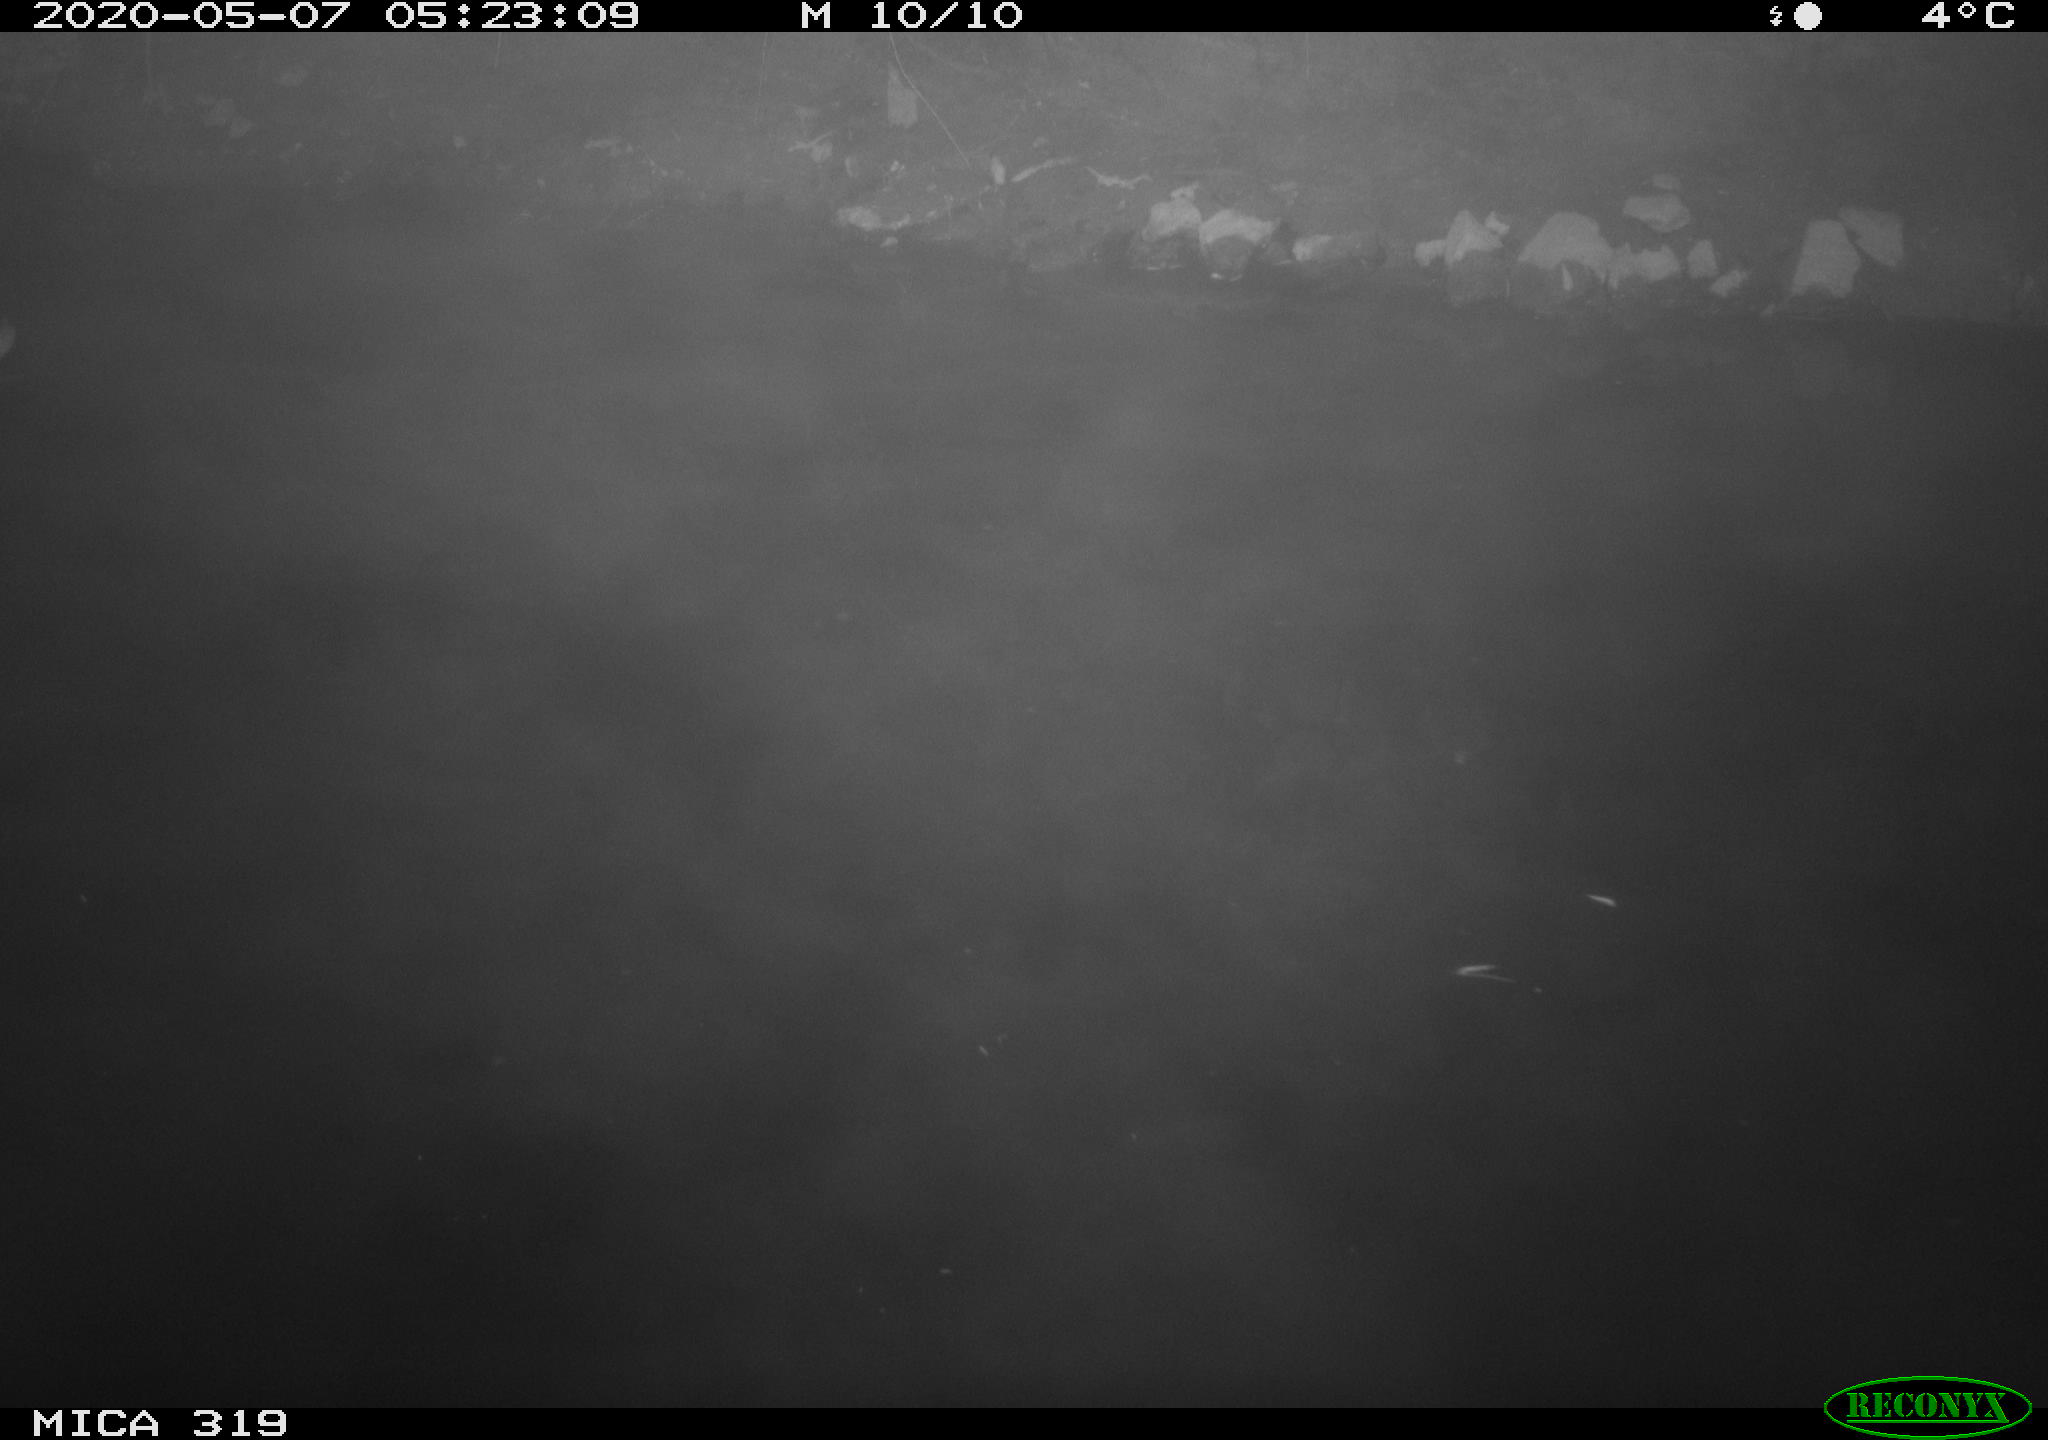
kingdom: Animalia
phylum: Chordata
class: Aves
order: Pelecaniformes
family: Ardeidae
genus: Ardea
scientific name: Ardea cinerea
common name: Grey heron
